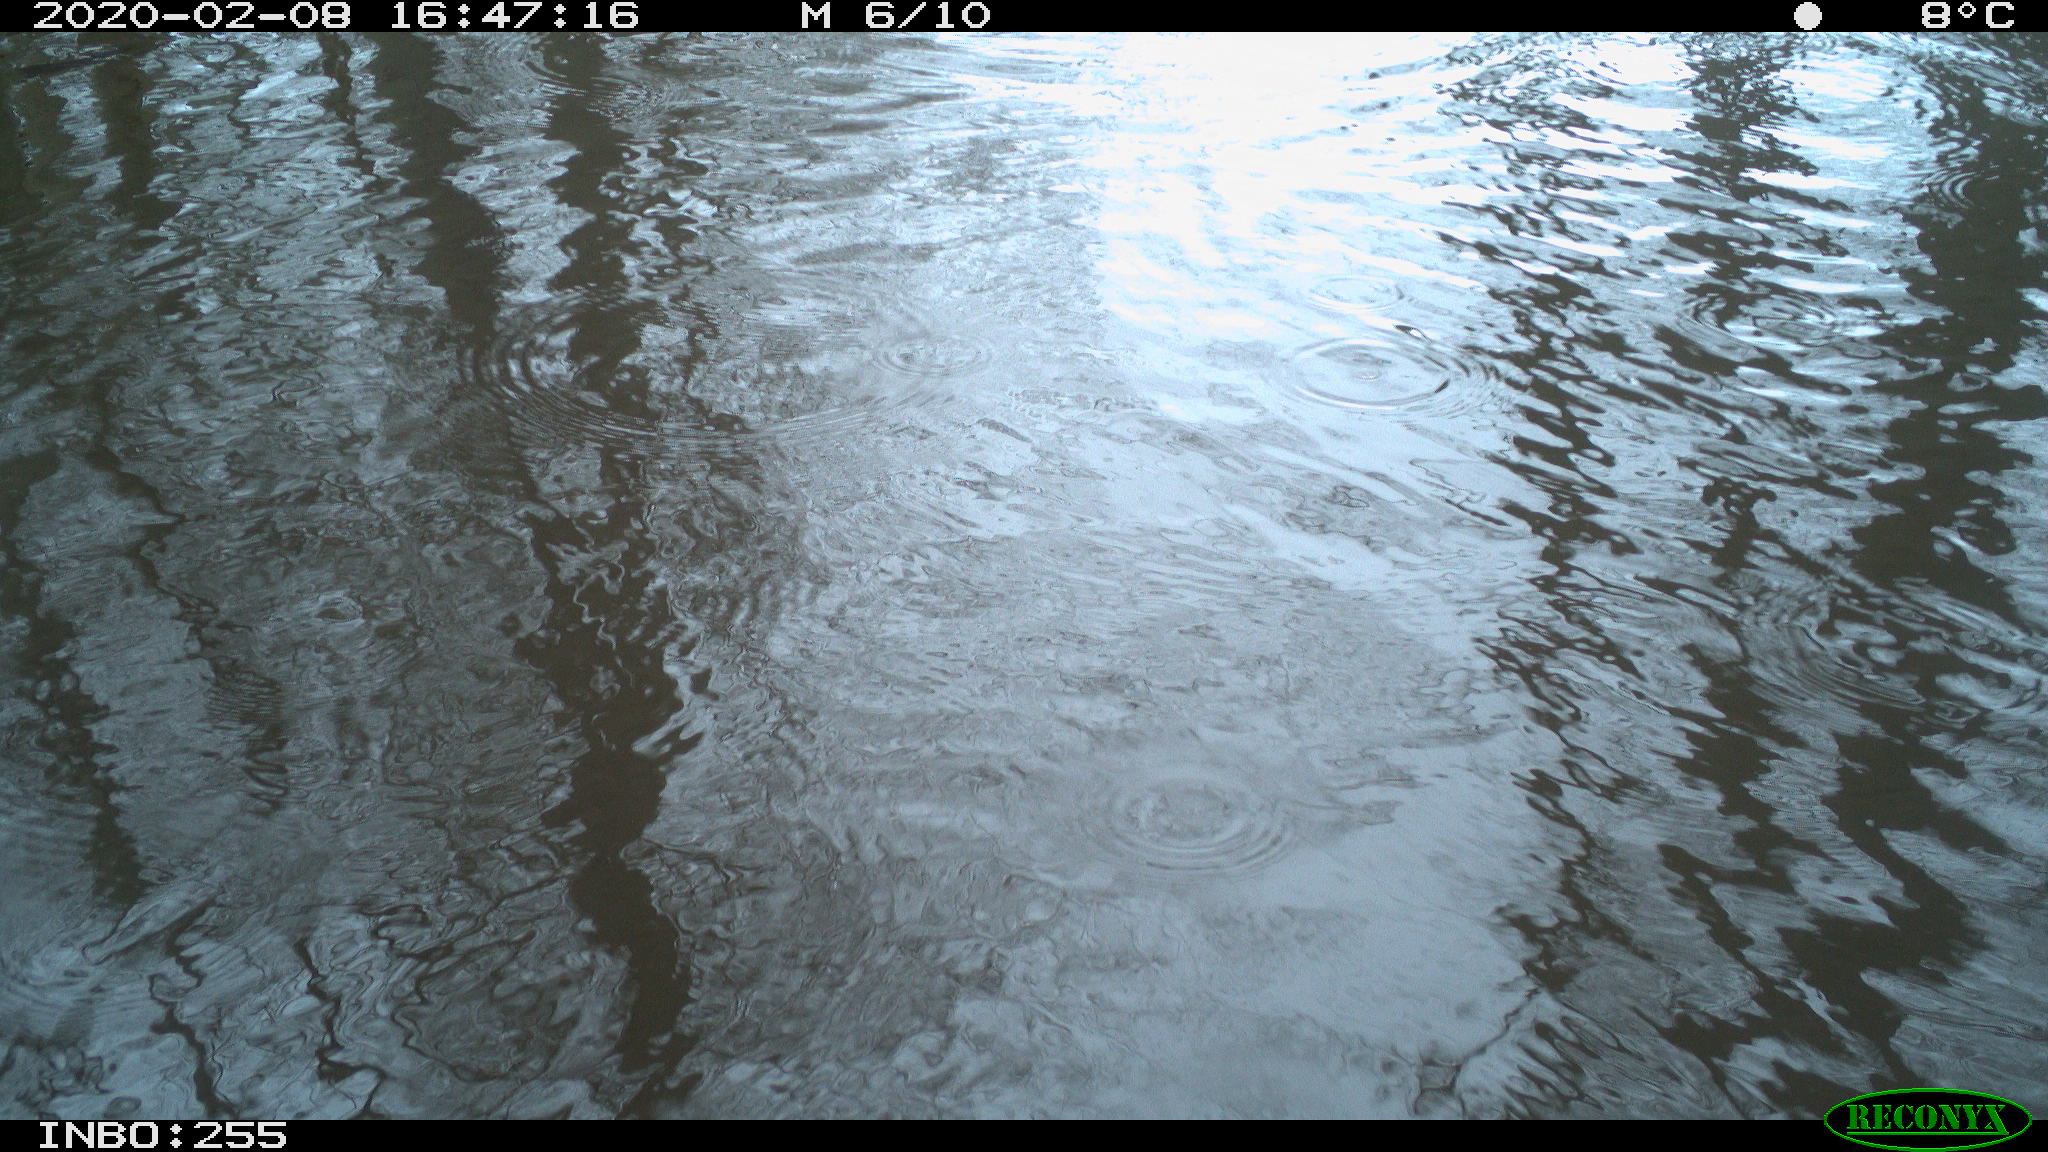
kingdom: Animalia
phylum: Chordata
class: Aves
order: Gruiformes
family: Rallidae
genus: Fulica
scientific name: Fulica atra
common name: Eurasian coot
